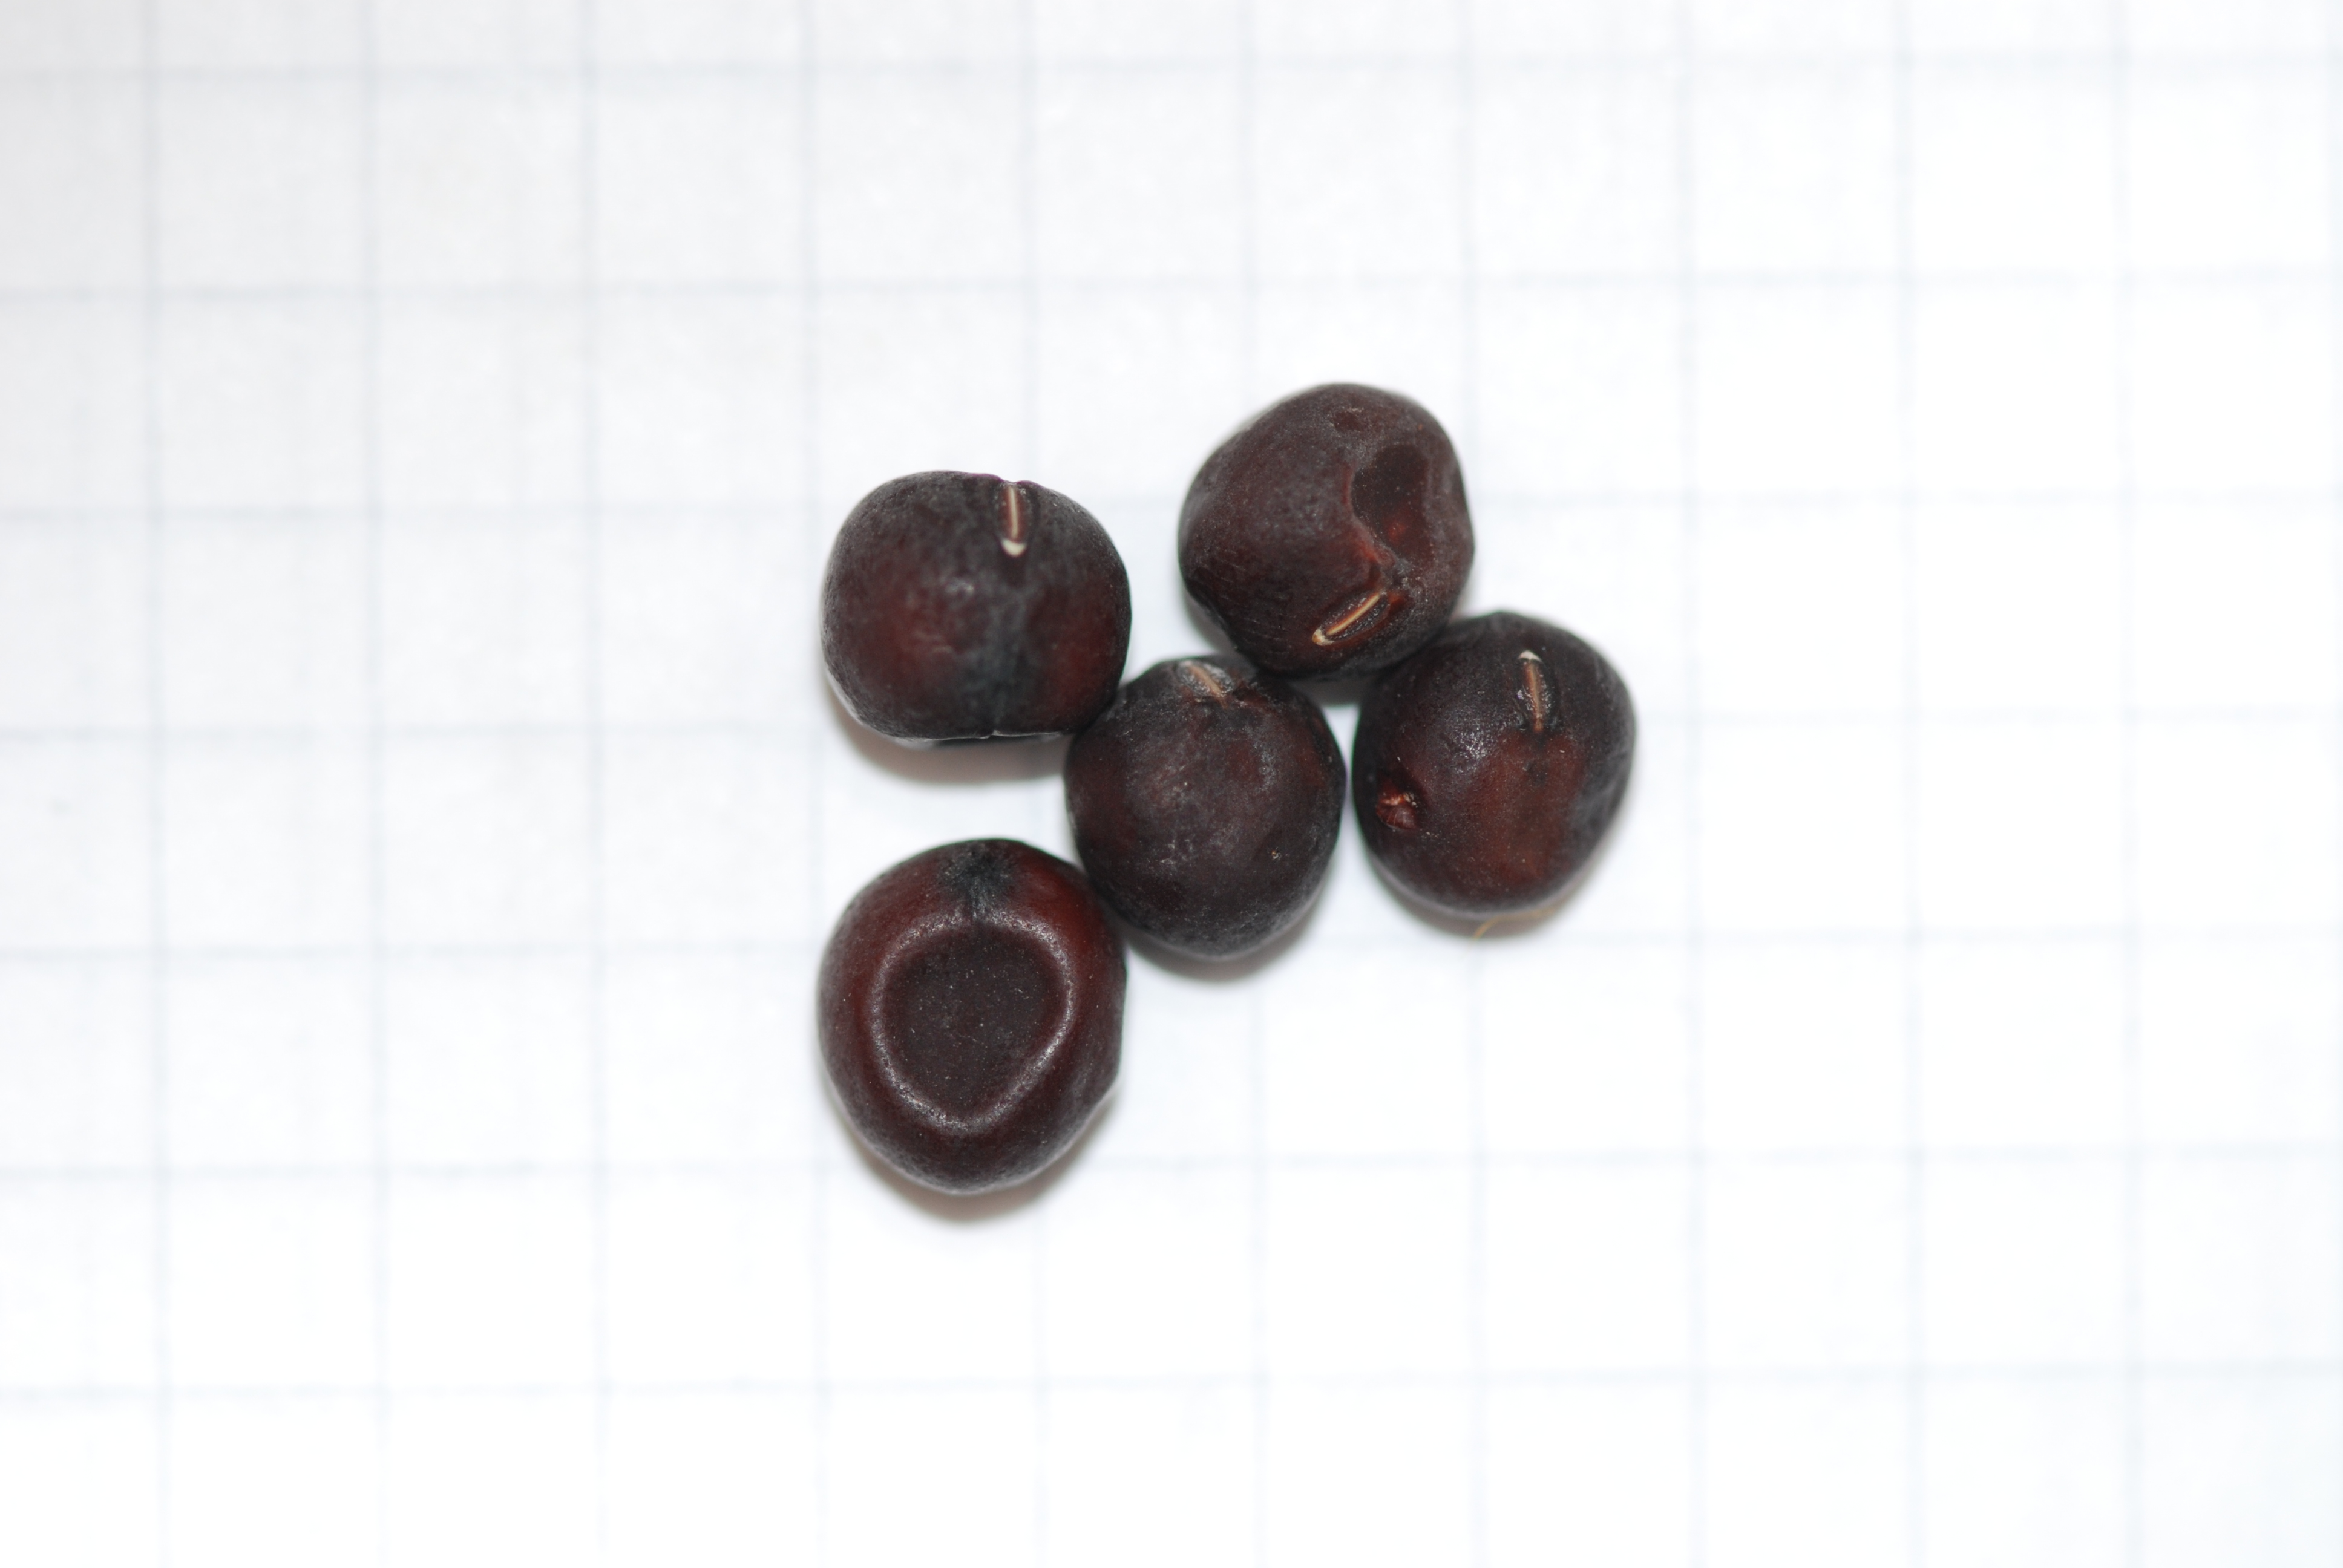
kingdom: Plantae
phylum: Tracheophyta
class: Magnoliopsida
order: Fabales
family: Fabaceae
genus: Lathyrus
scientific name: Lathyrus oleraceus
